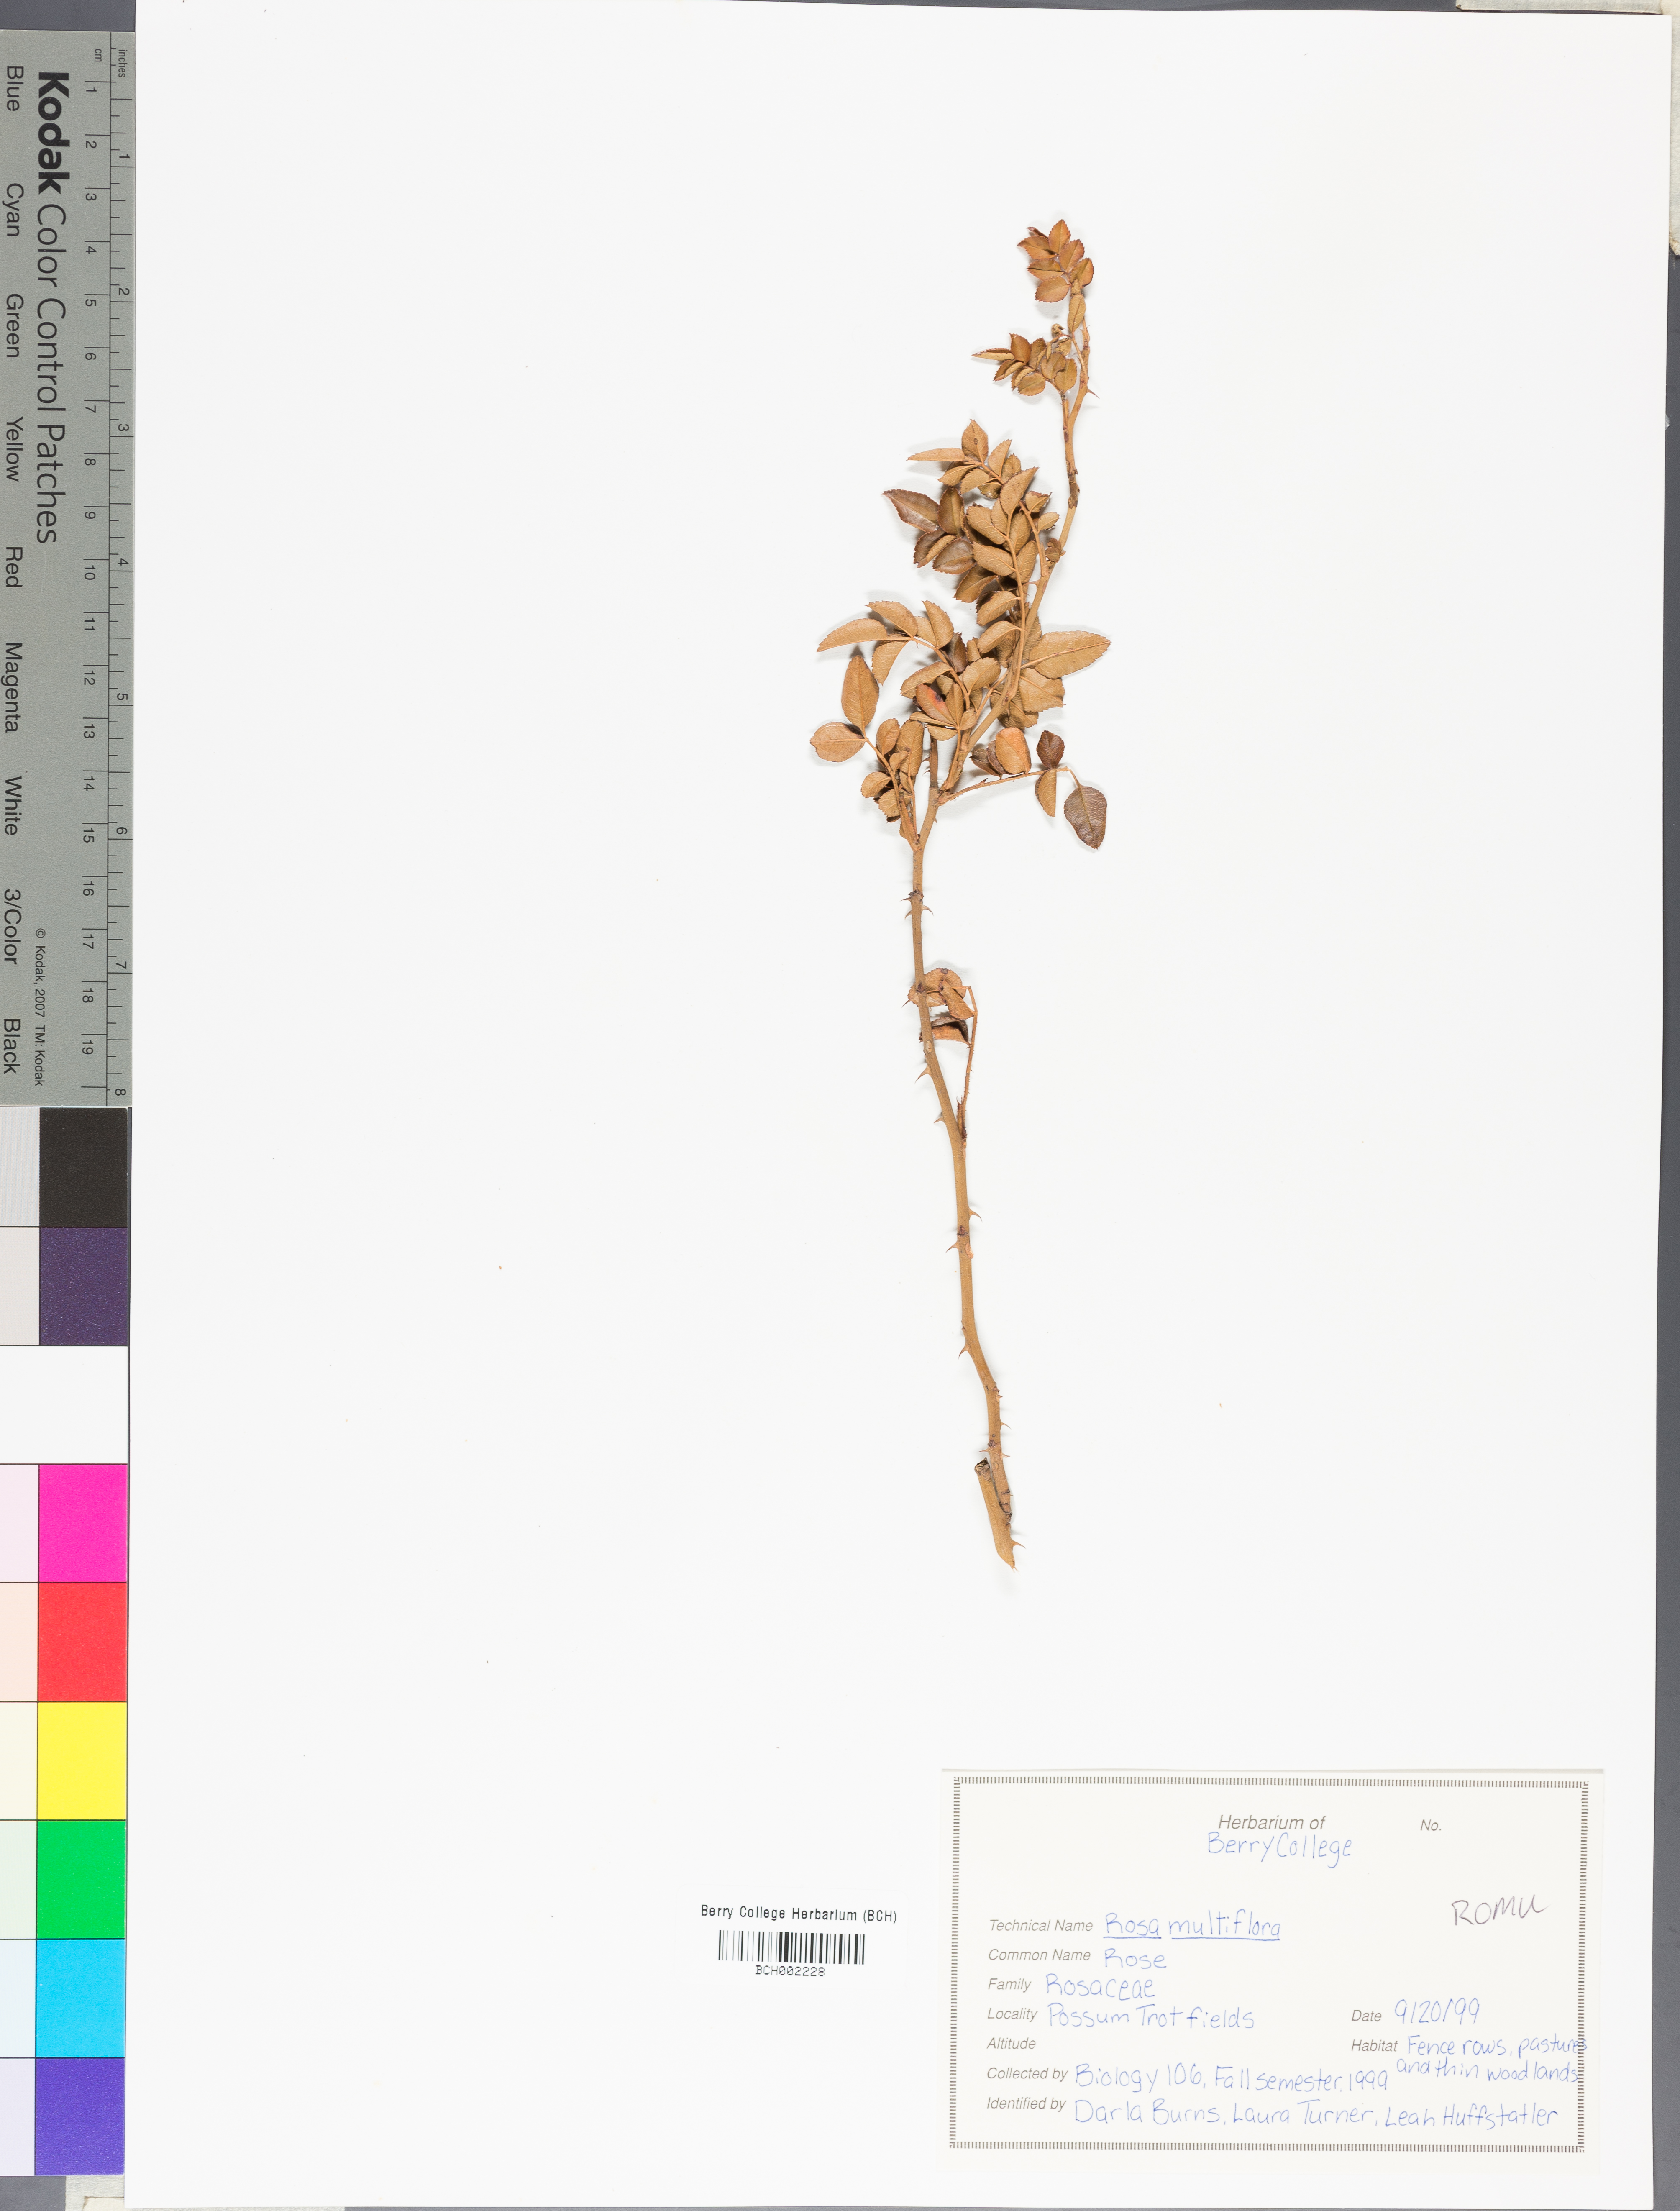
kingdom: Plantae
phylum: Tracheophyta
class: Magnoliopsida
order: Rosales
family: Rosaceae
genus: Rosa
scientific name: Rosa multiflora
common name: Multiflora rose
